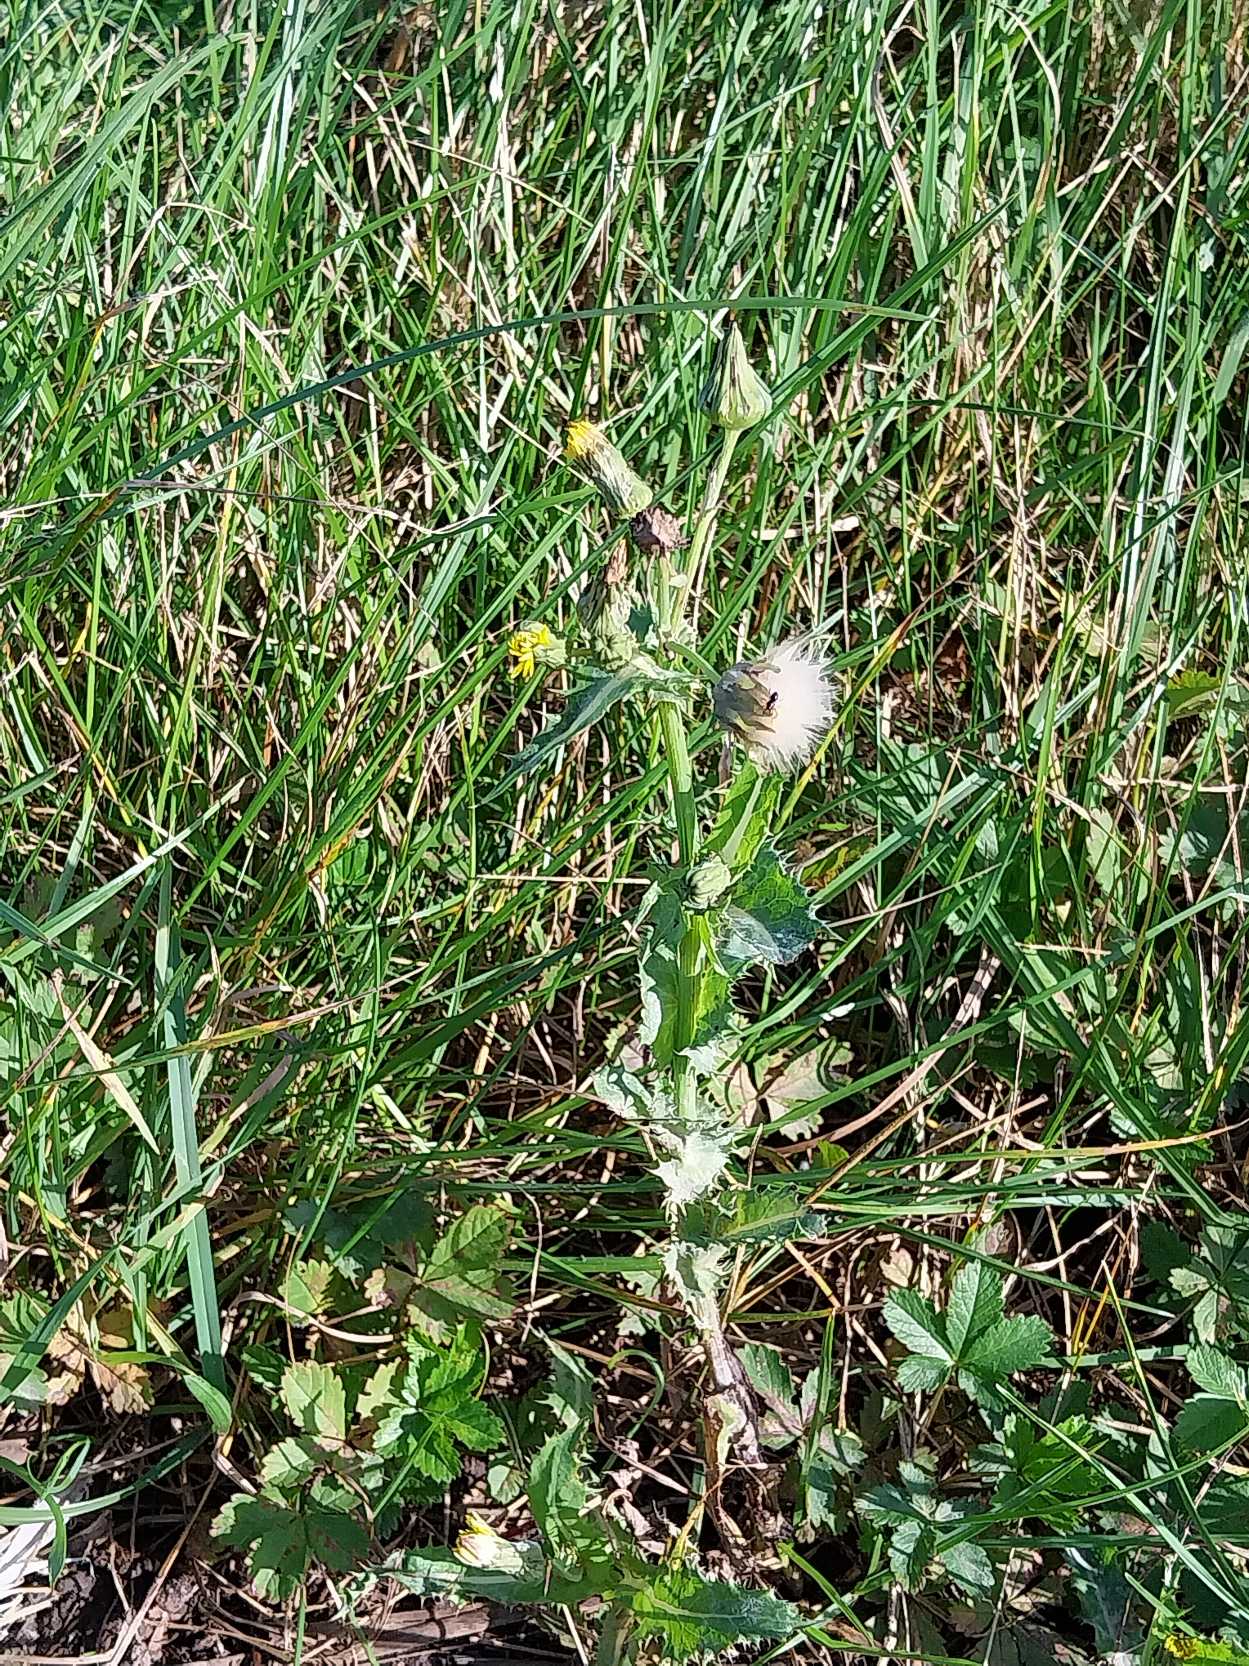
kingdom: Plantae
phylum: Tracheophyta
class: Magnoliopsida
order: Asterales
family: Asteraceae
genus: Sonchus
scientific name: Sonchus asper
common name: Ru svinemælk
